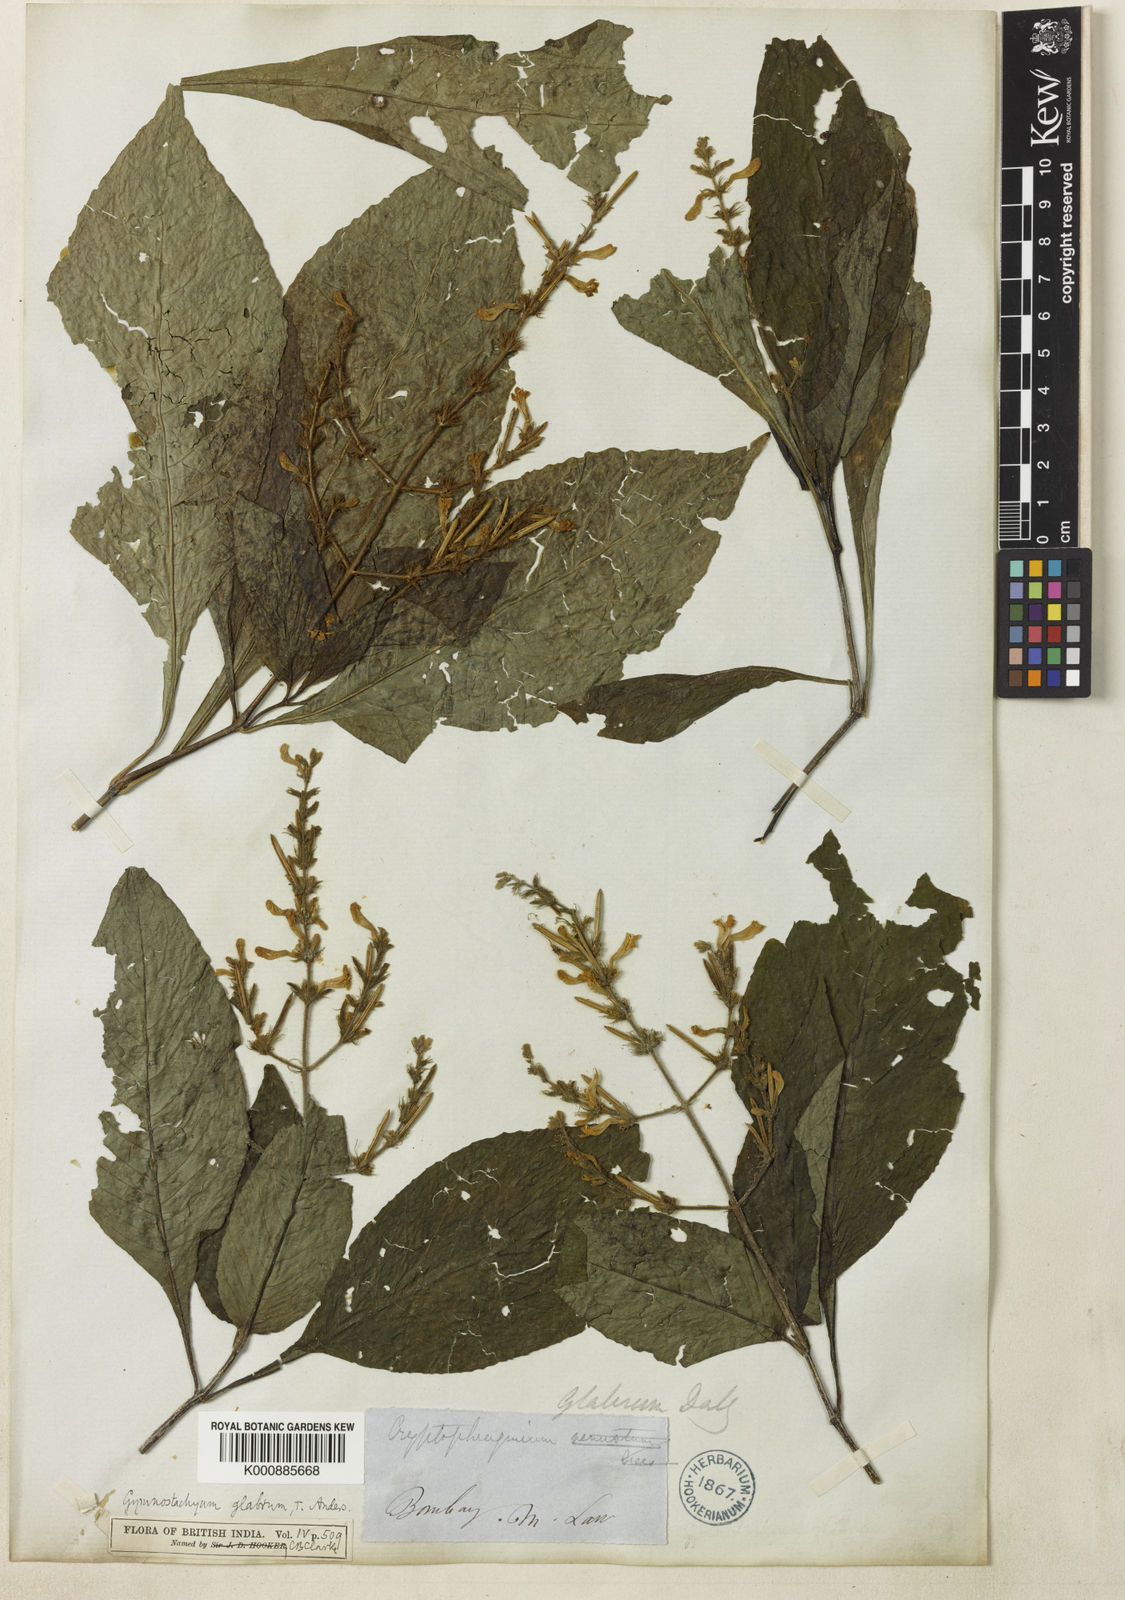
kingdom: Plantae
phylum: Tracheophyta
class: Magnoliopsida
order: Lamiales
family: Acanthaceae
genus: Gymnostachyum
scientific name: Gymnostachyum glabrum
